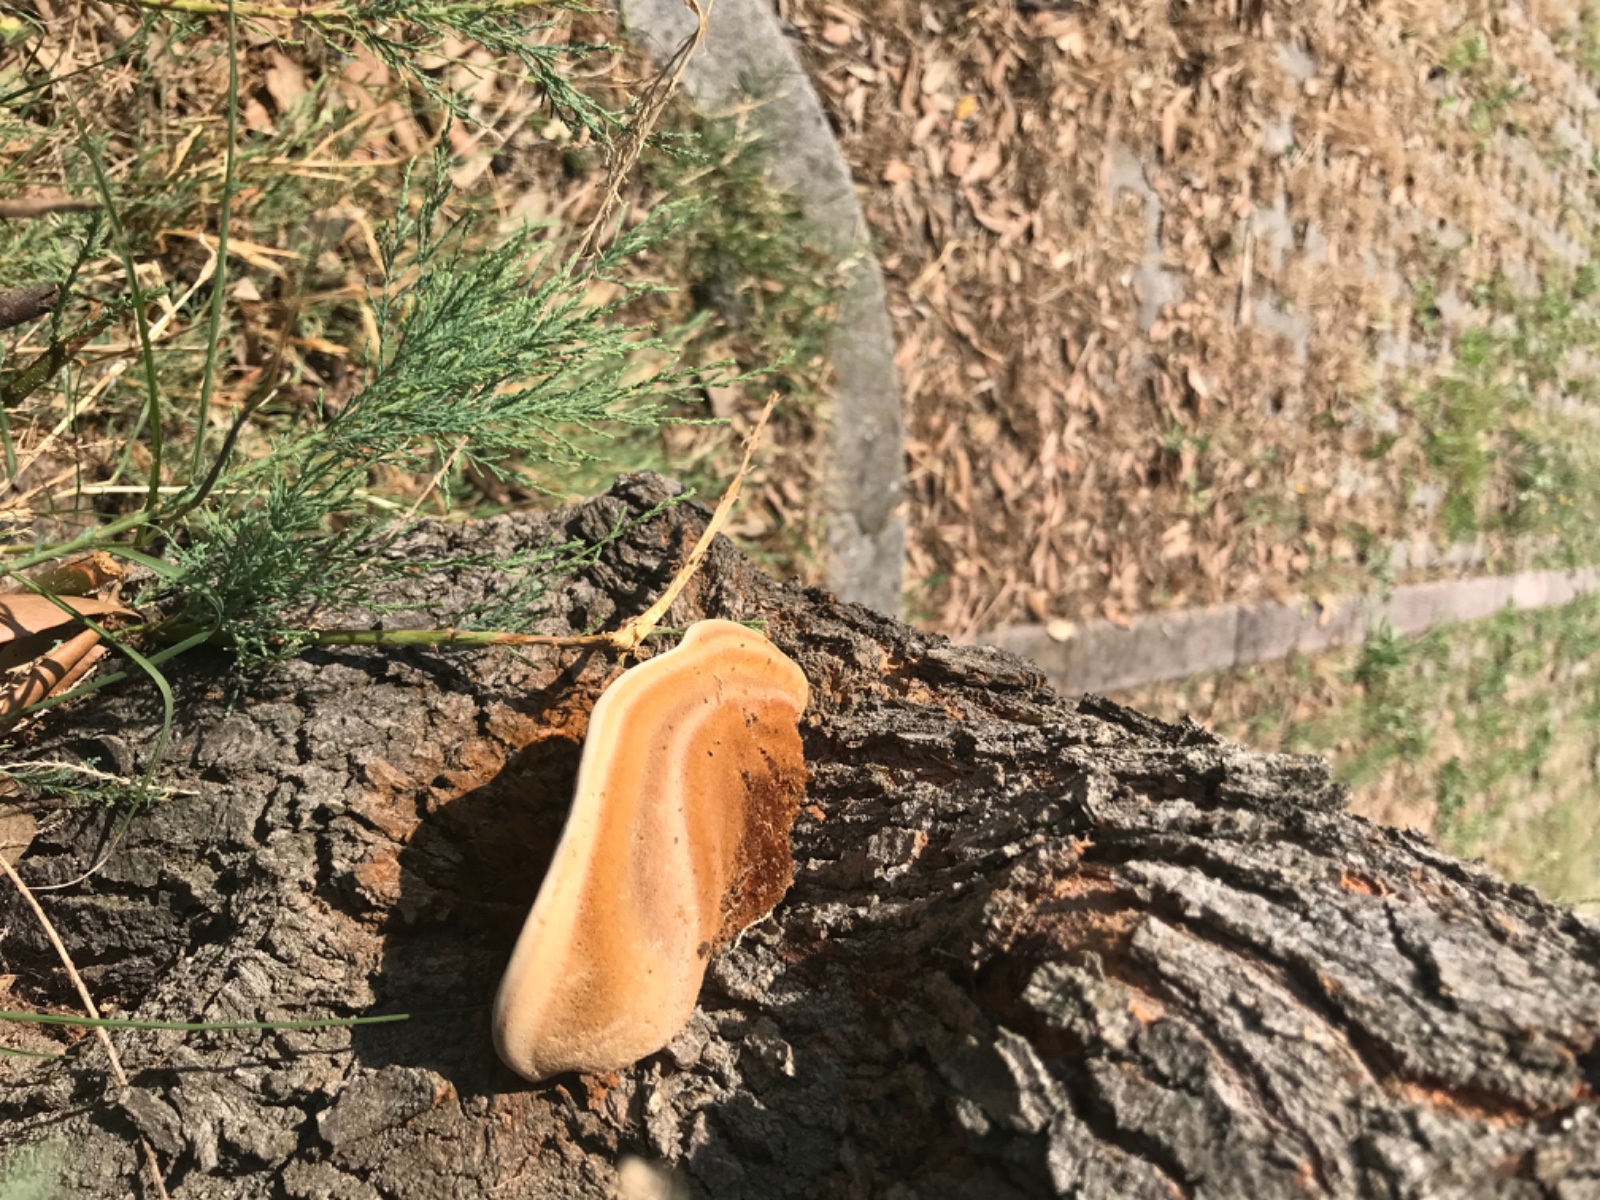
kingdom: Fungi
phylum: Basidiomycota
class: Agaricomycetes
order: Hymenochaetales
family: Hymenochaetaceae
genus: Inocutis
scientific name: Inocutis tamaricis
